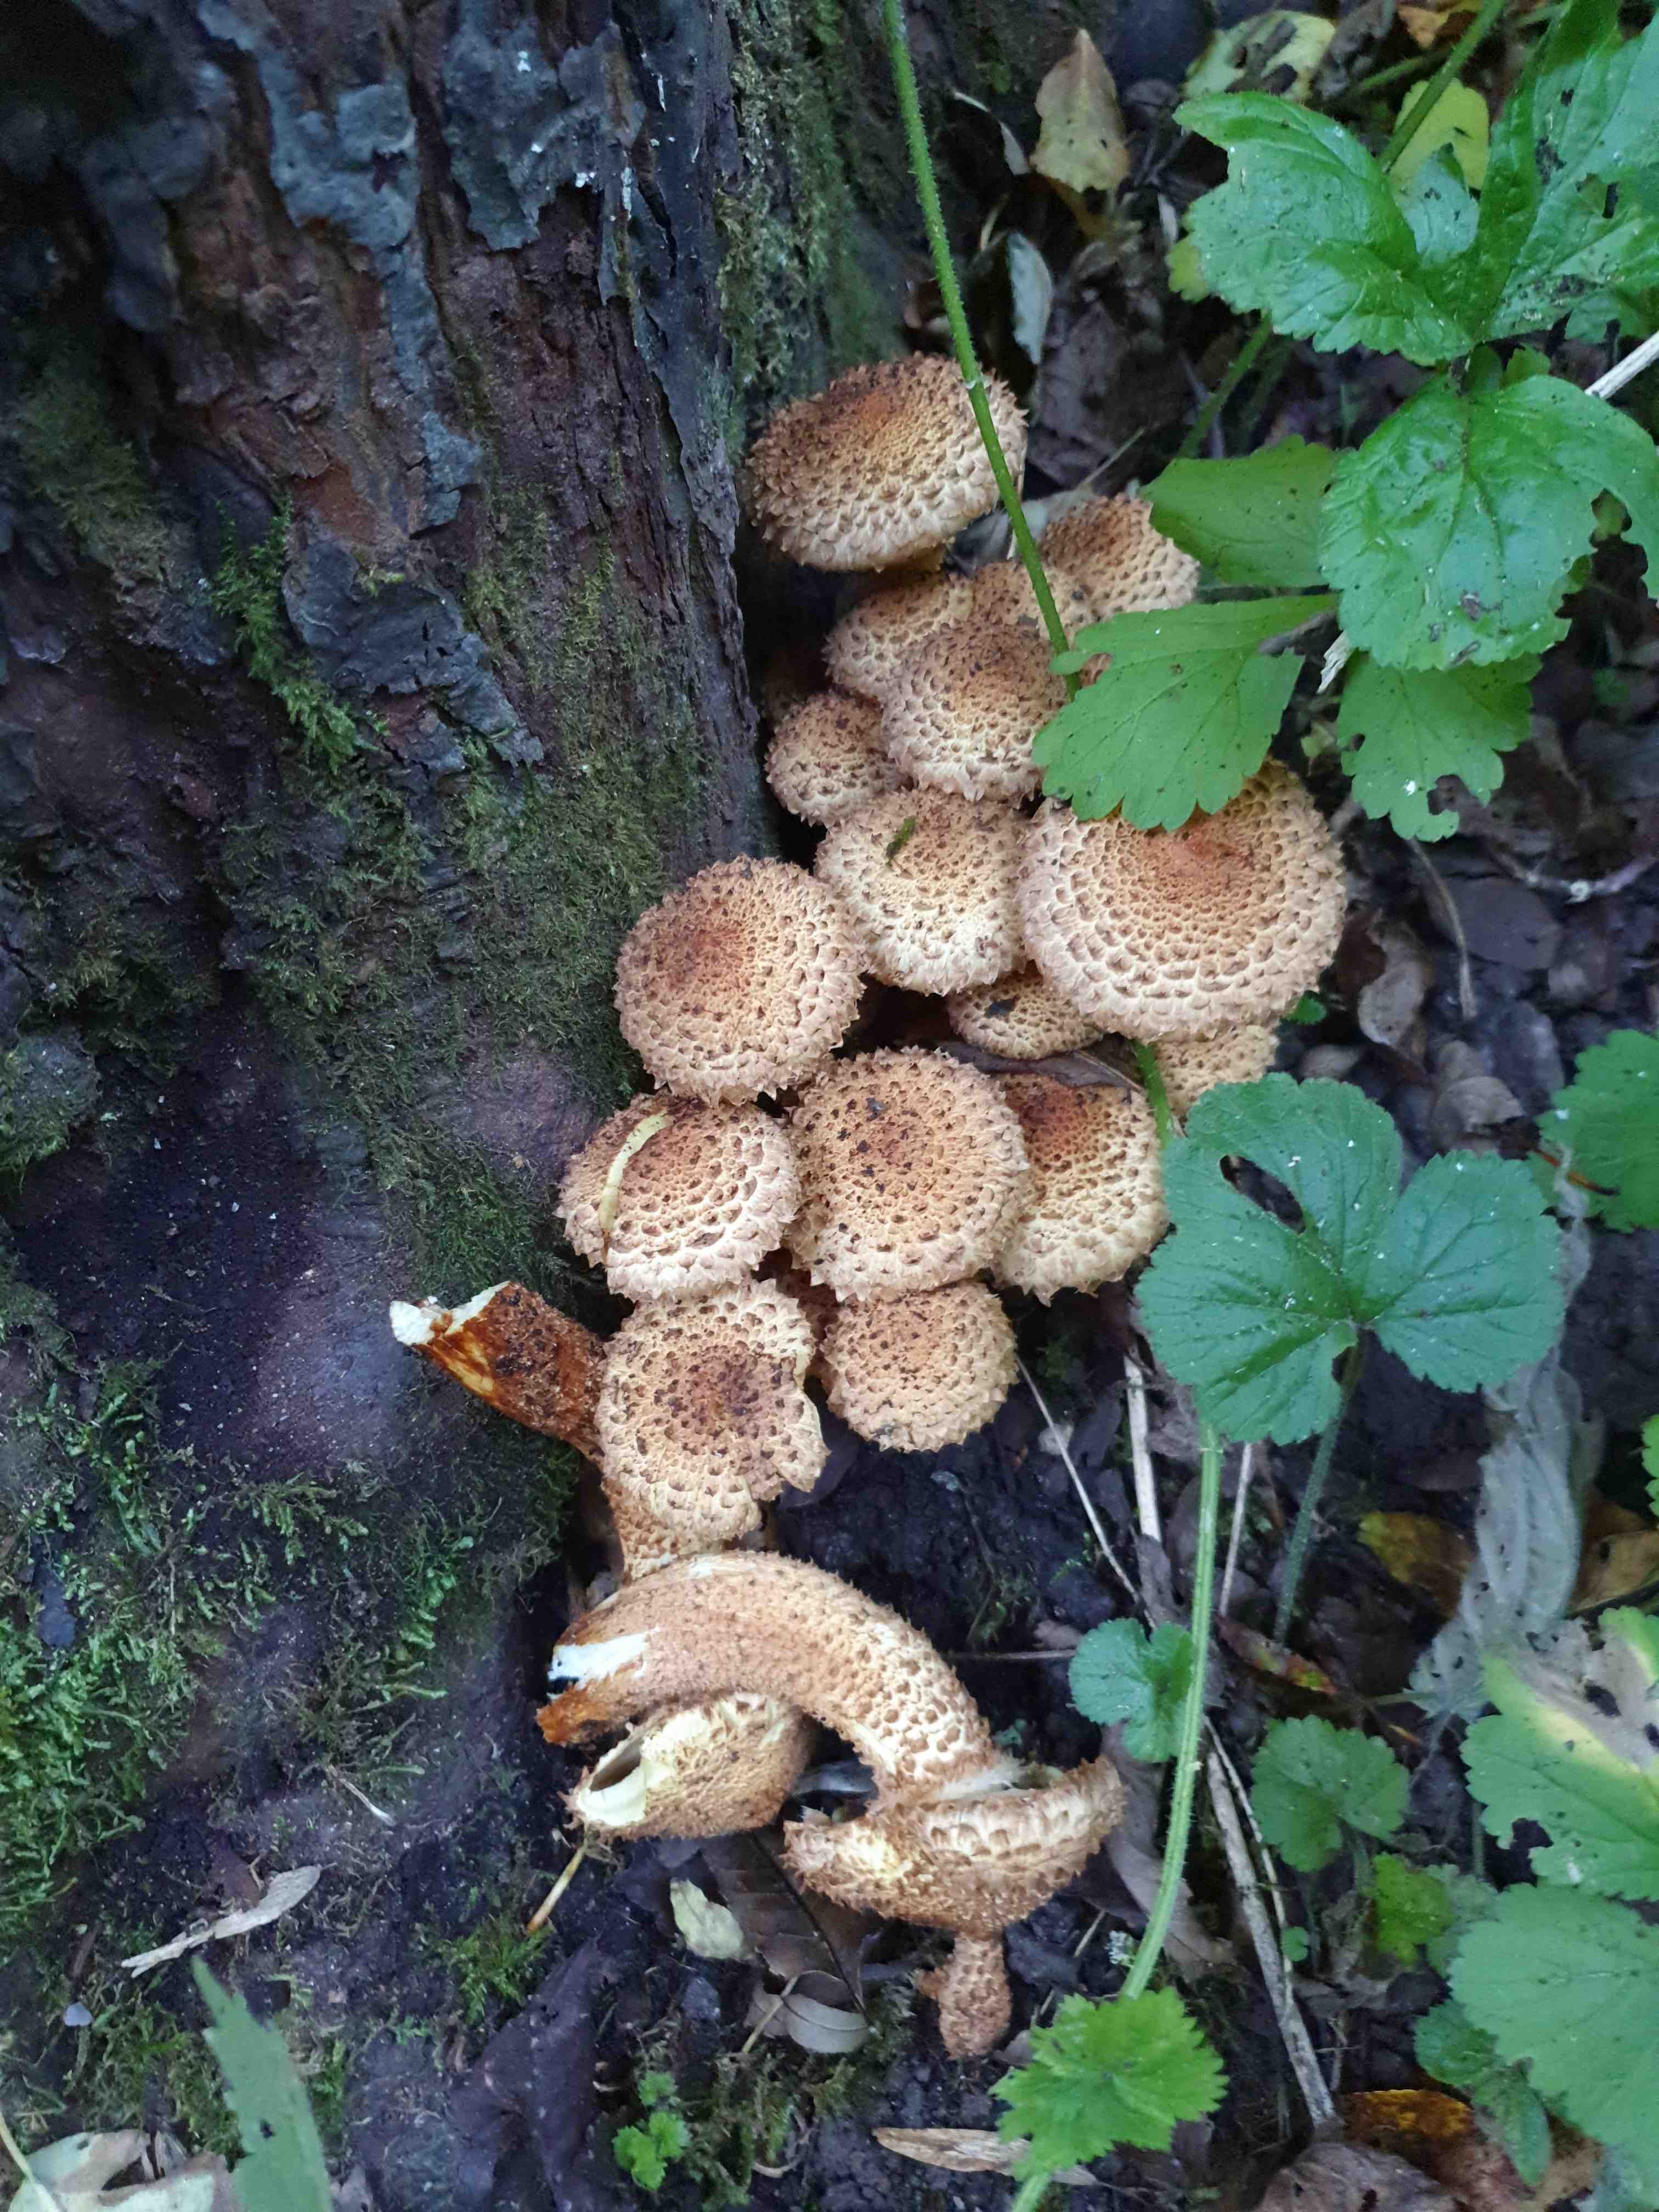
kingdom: Fungi
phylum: Basidiomycota
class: Agaricomycetes
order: Agaricales
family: Strophariaceae
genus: Pholiota
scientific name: Pholiota squarrosa
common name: krumskællet skælhat
